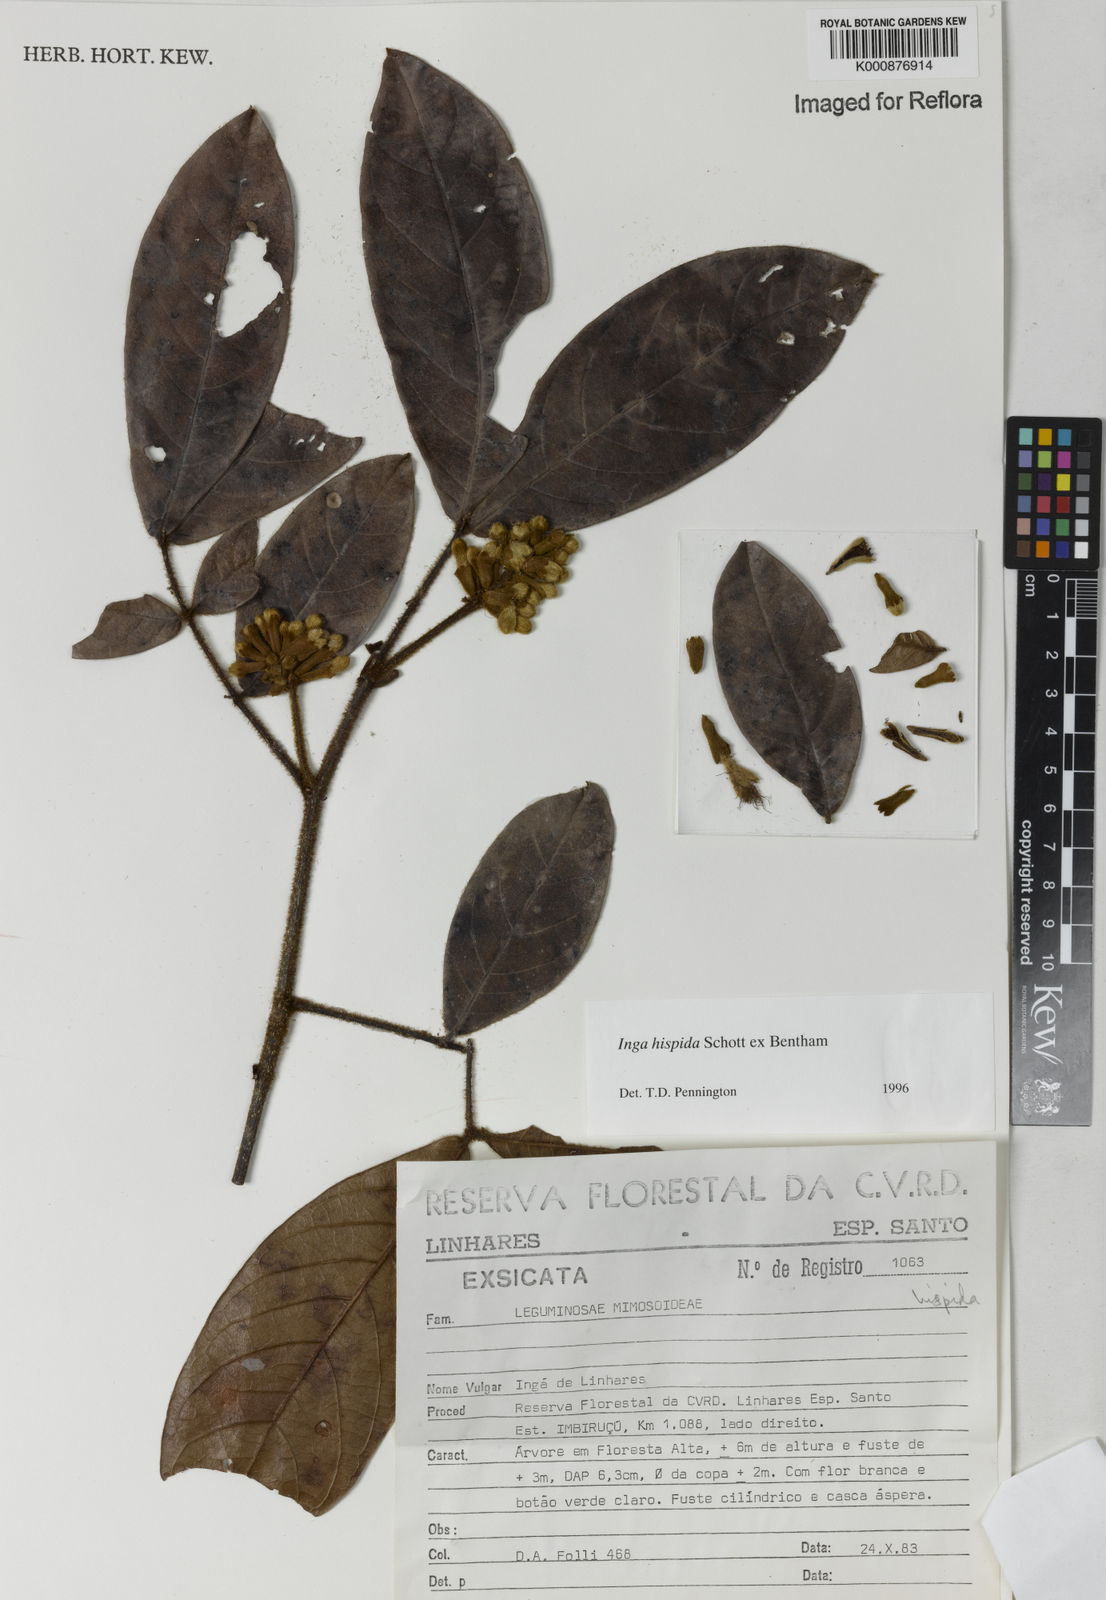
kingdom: Plantae
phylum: Tracheophyta
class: Magnoliopsida
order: Fabales
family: Fabaceae
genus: Inga
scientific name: Inga hispida
